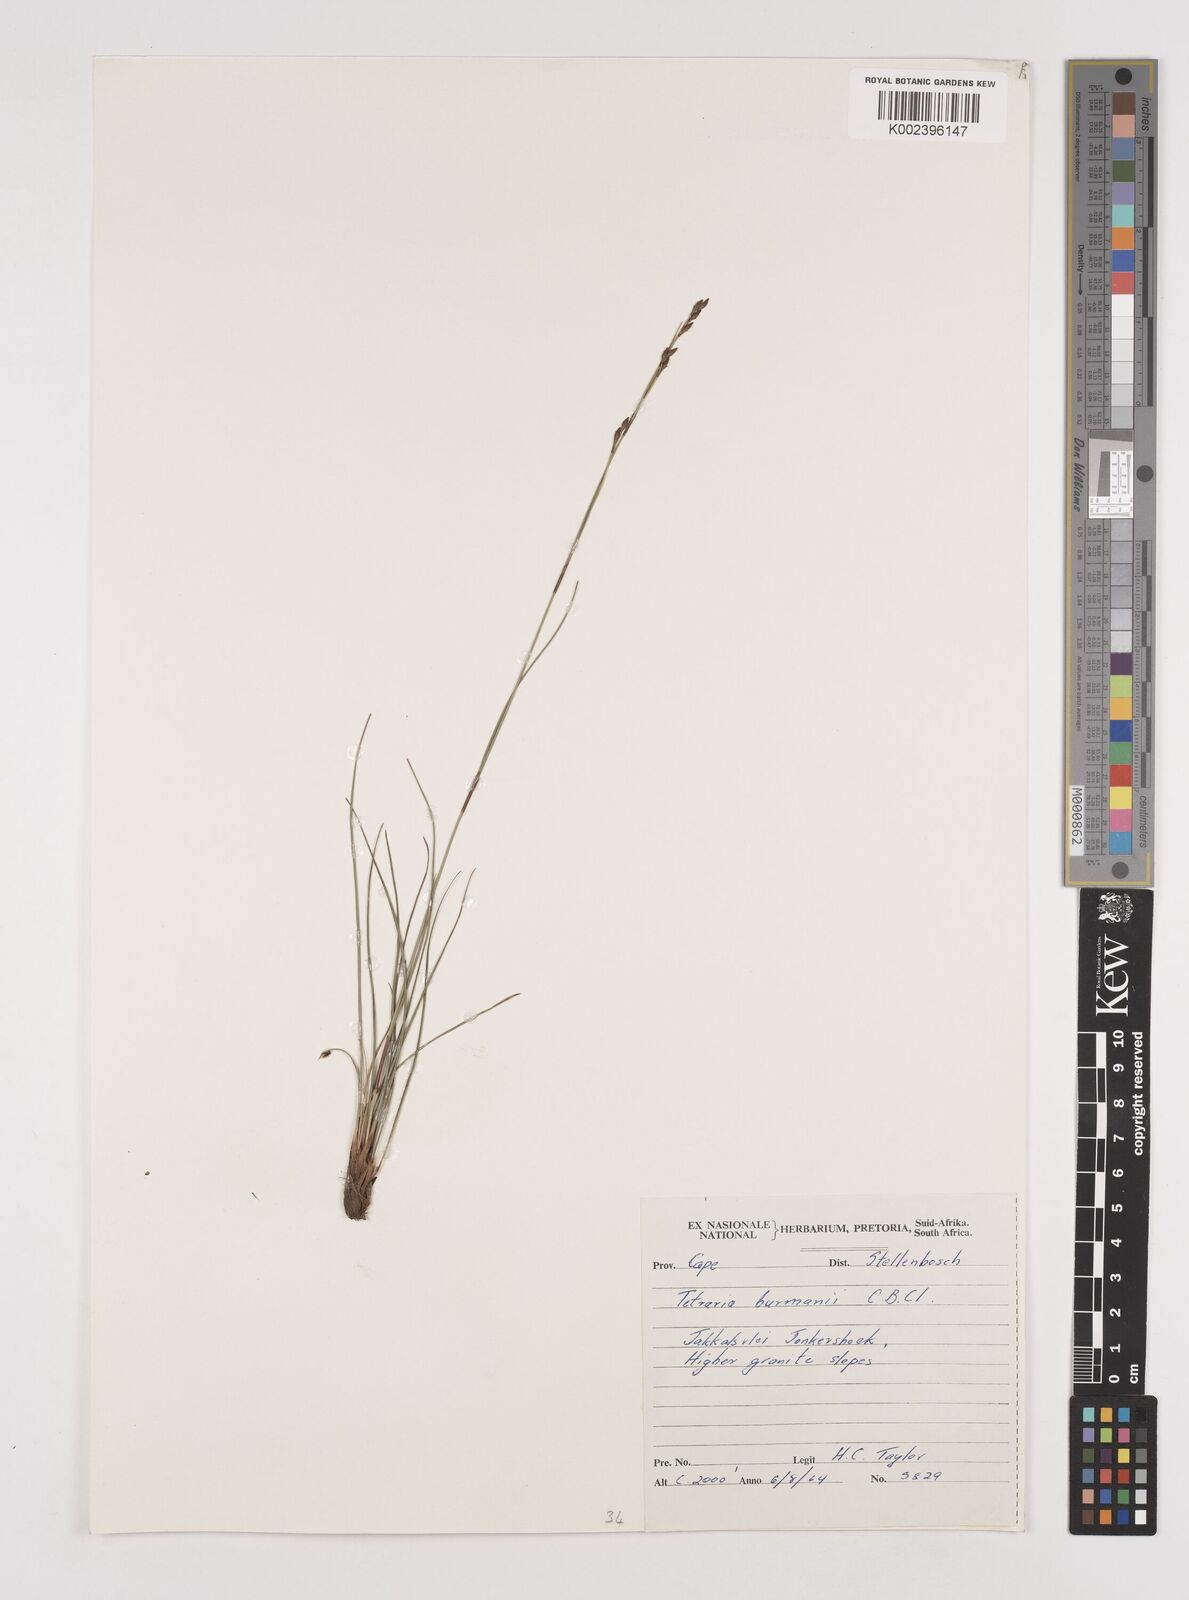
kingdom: Plantae
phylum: Tracheophyta
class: Liliopsida
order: Poales
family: Cyperaceae
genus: Tetraria
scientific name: Tetraria burmanni
